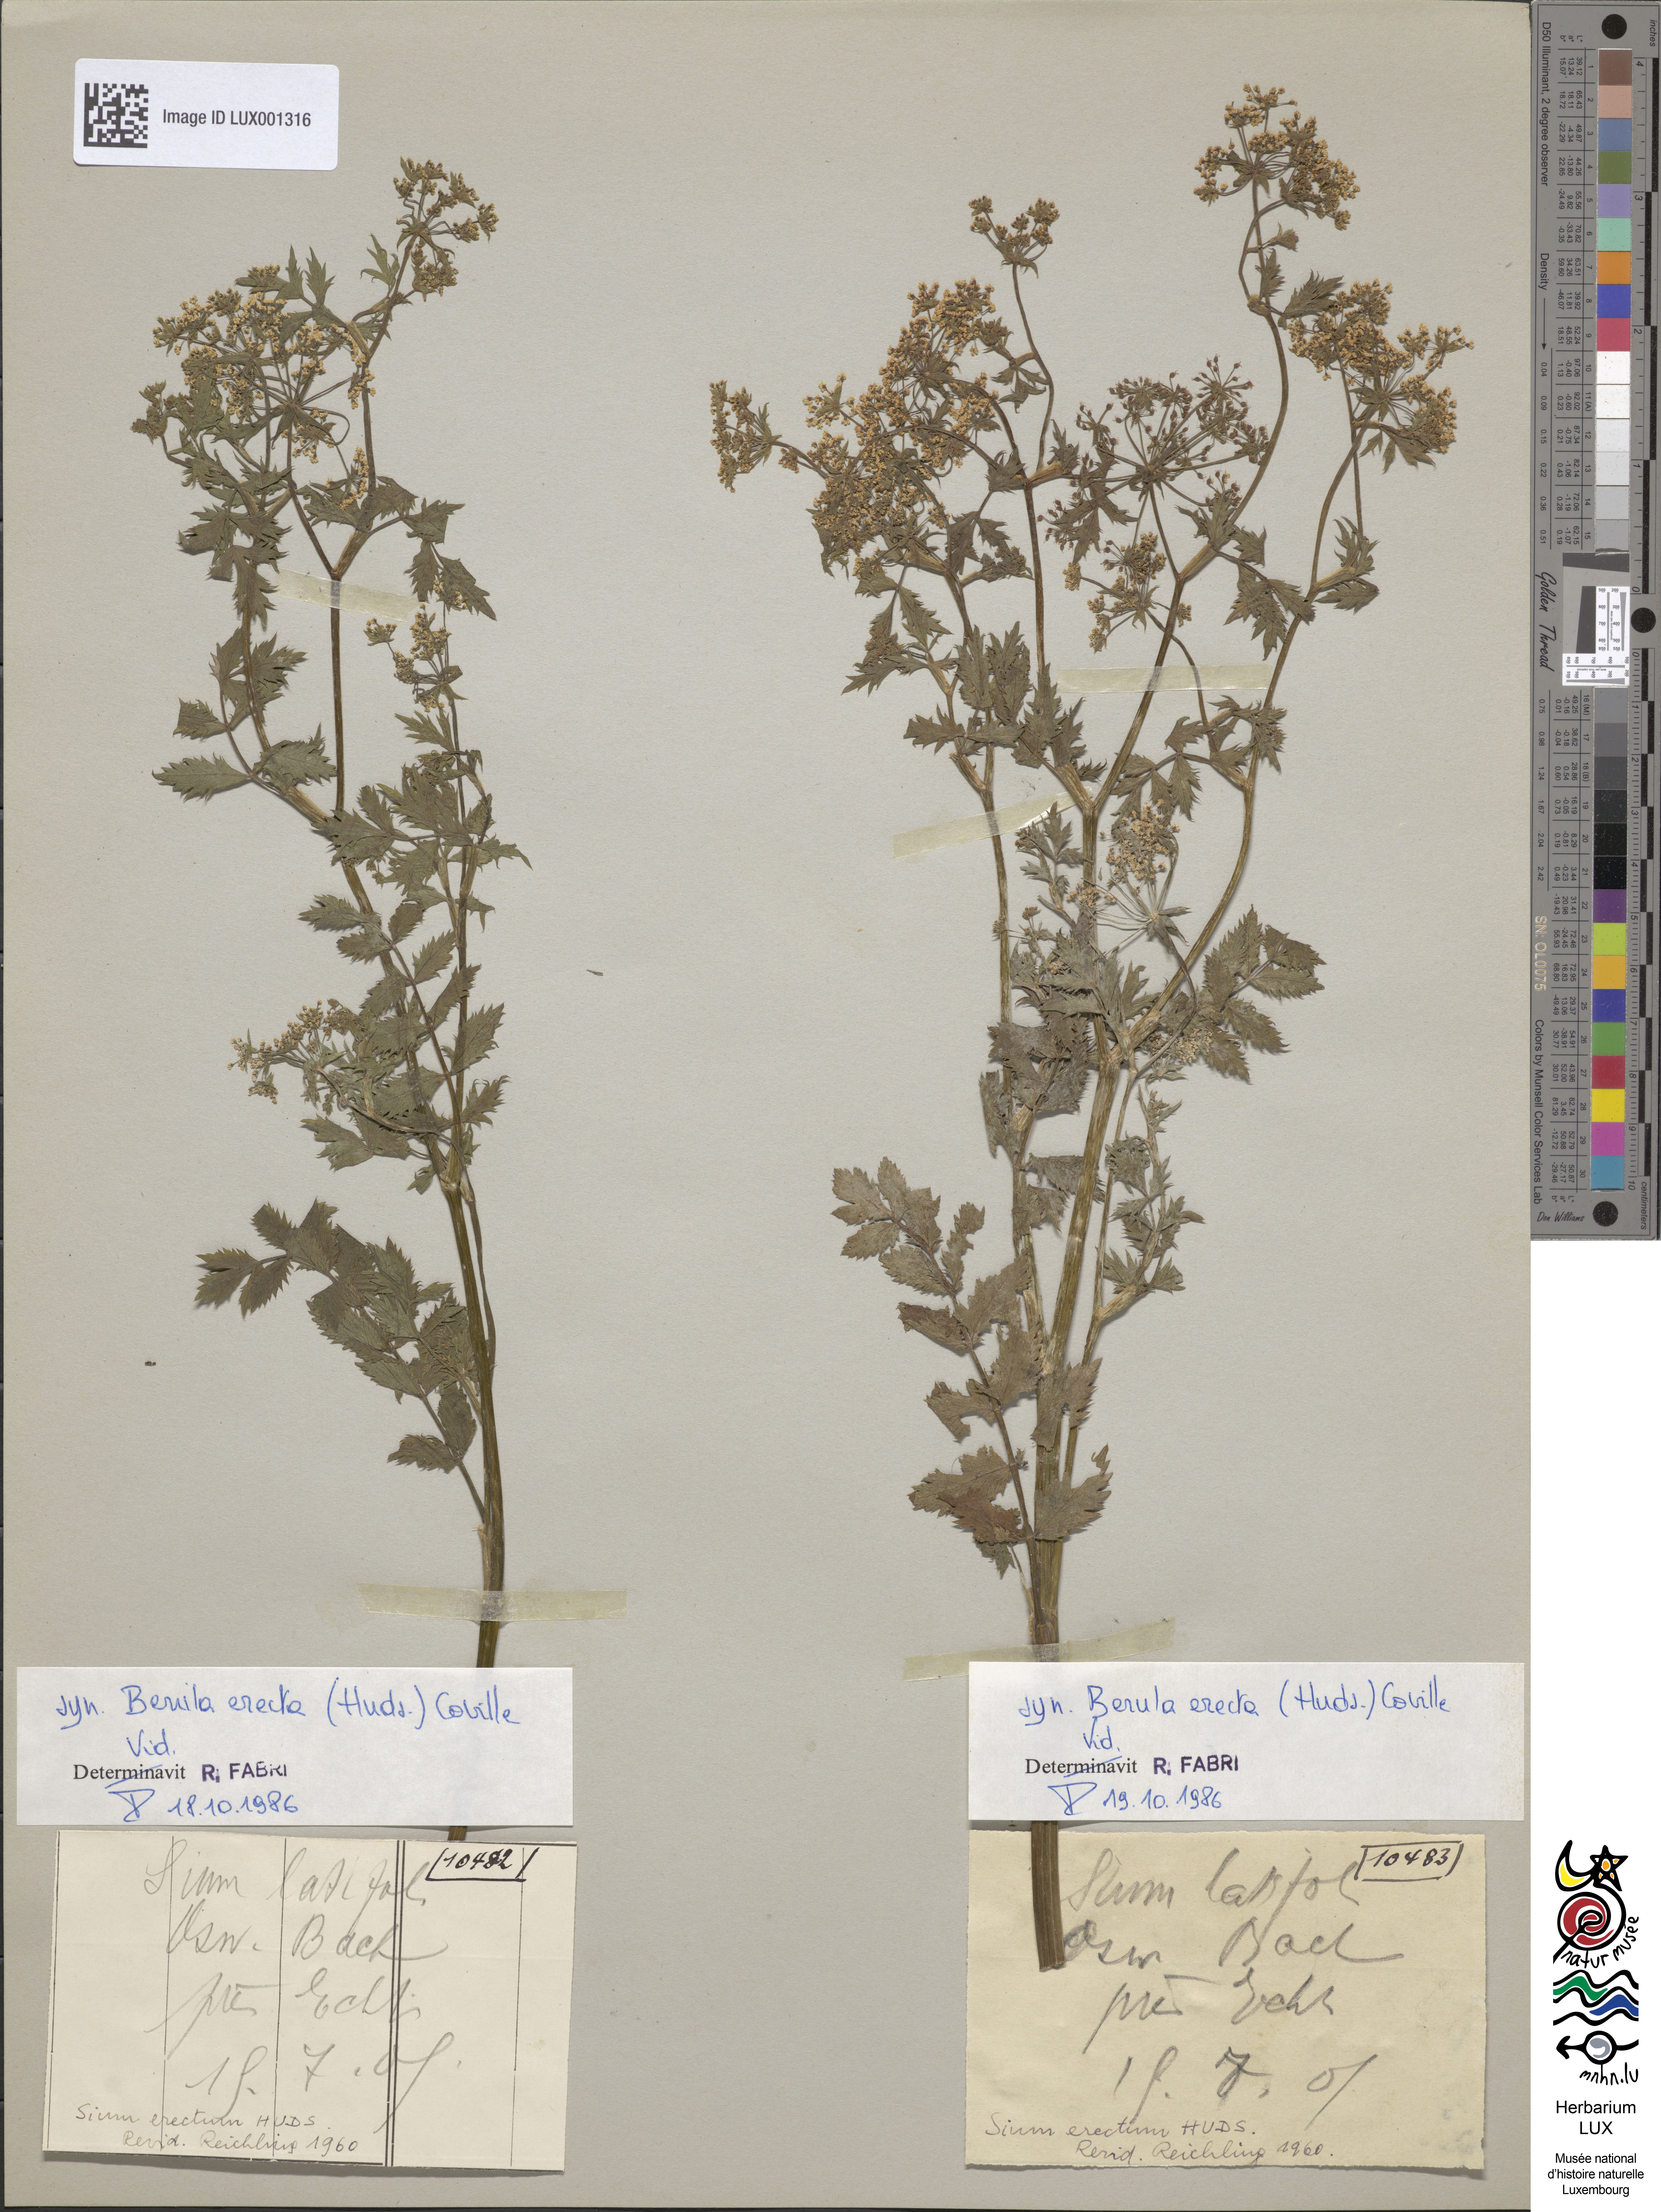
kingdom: Plantae
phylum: Tracheophyta
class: Magnoliopsida
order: Apiales
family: Apiaceae
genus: Sium
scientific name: Sium latifolium
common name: Greater water-parsnip
